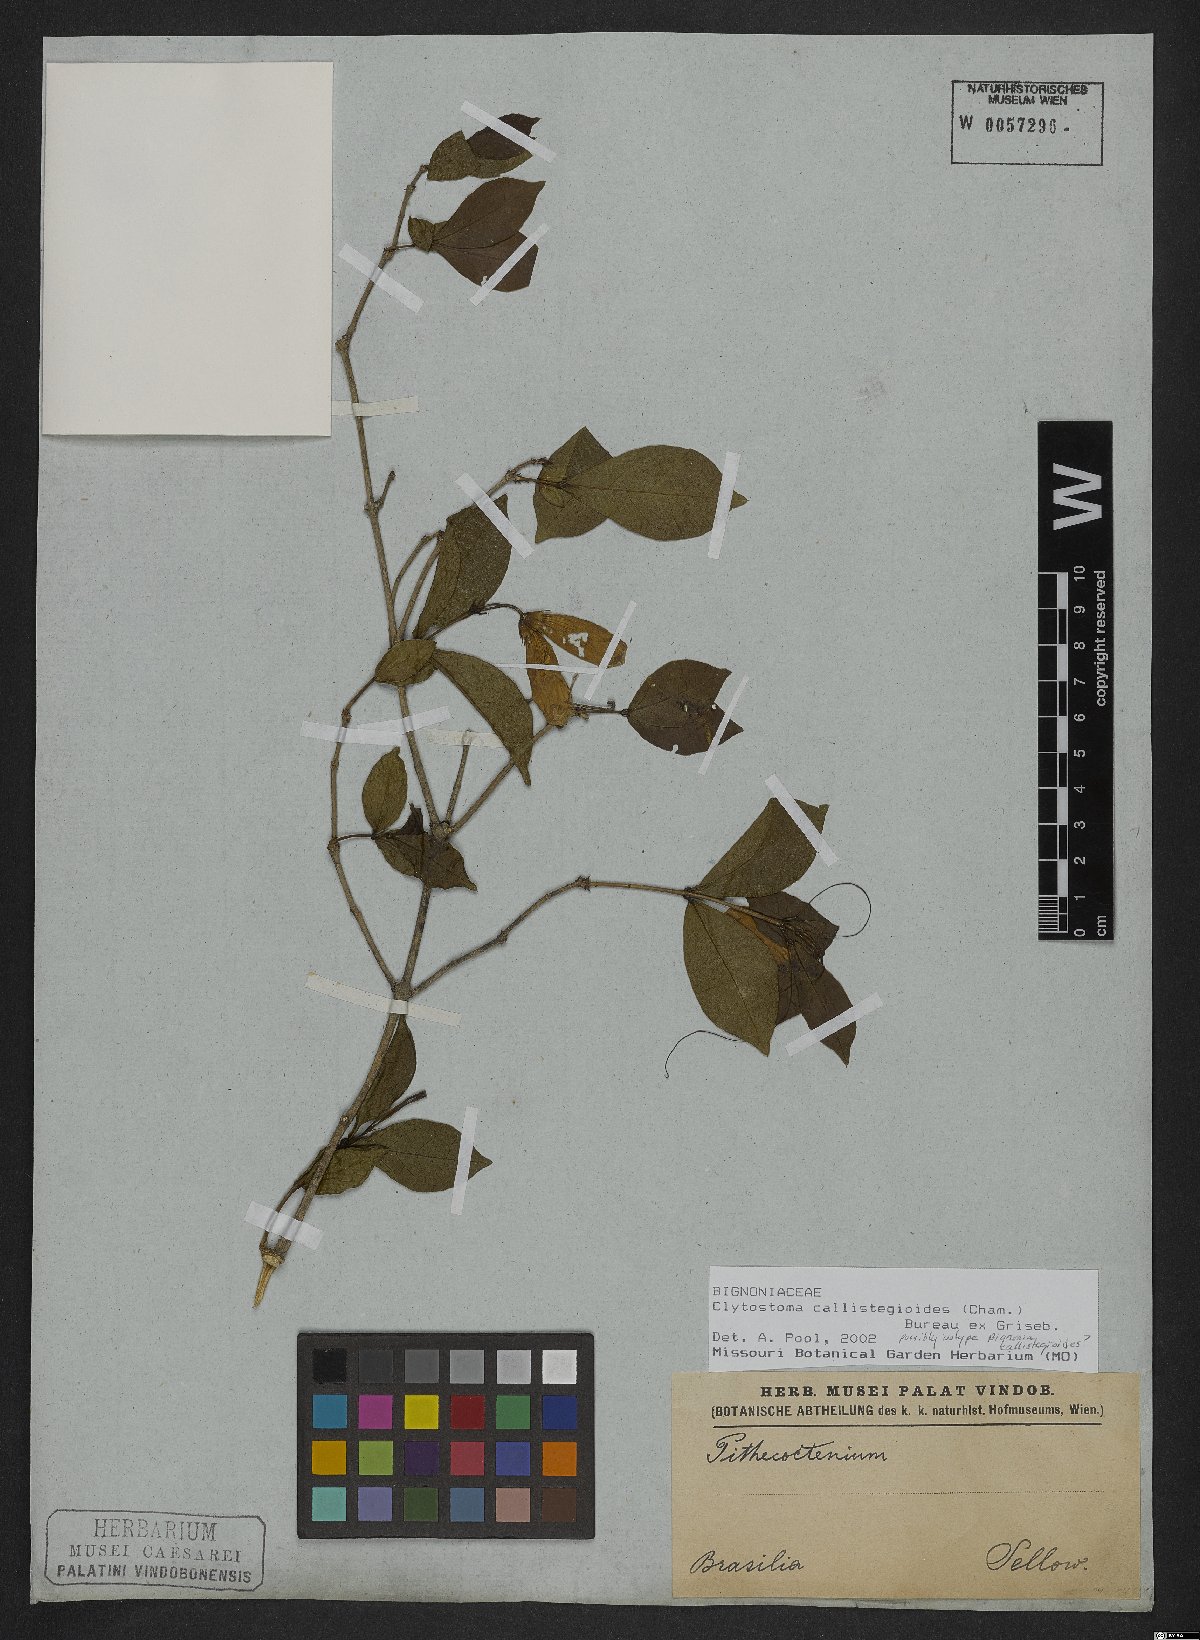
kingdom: Plantae
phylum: Tracheophyta
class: Magnoliopsida
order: Lamiales
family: Bignoniaceae
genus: Bignonia
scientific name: Bignonia callistegioides
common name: Argentine trumpetvine
